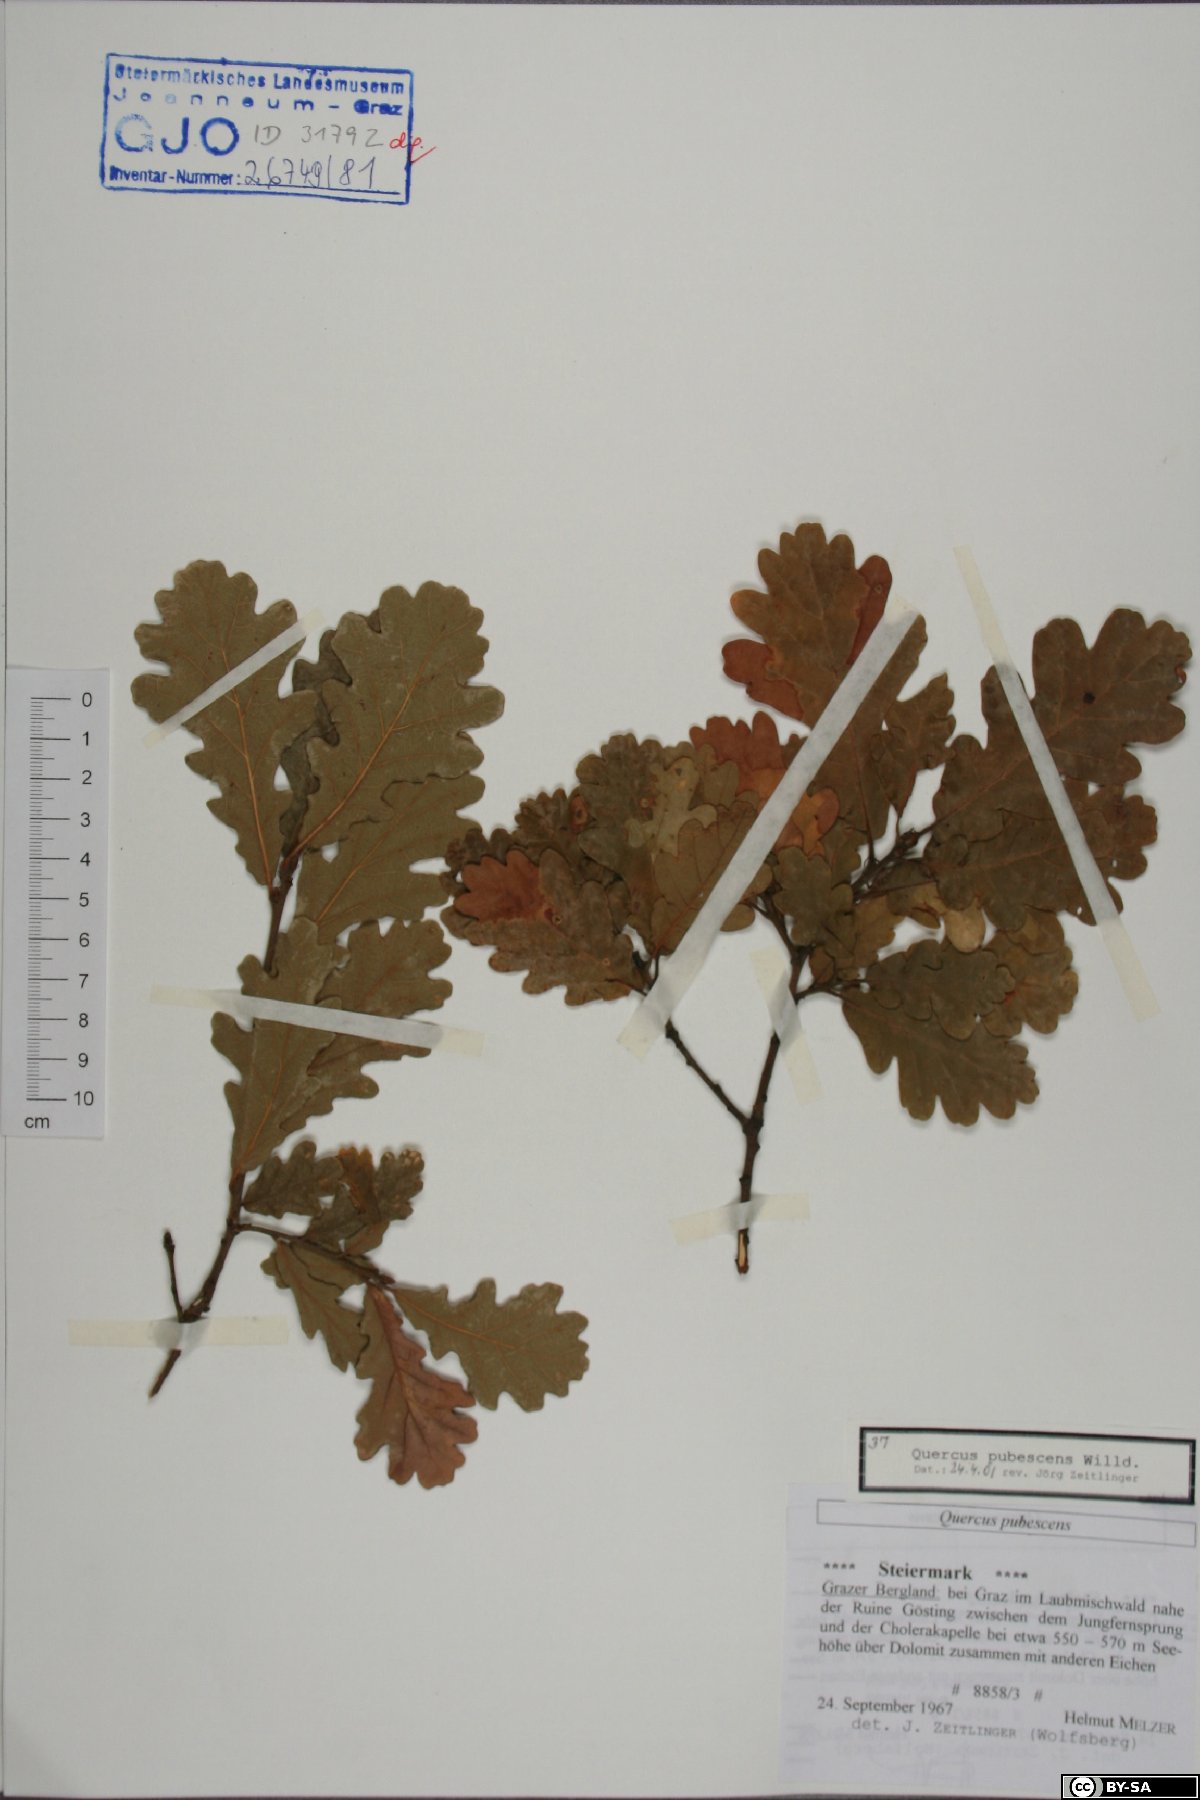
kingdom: Plantae
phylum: Tracheophyta
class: Magnoliopsida
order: Fagales
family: Fagaceae
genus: Quercus
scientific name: Quercus pubescens
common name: Downy oak
